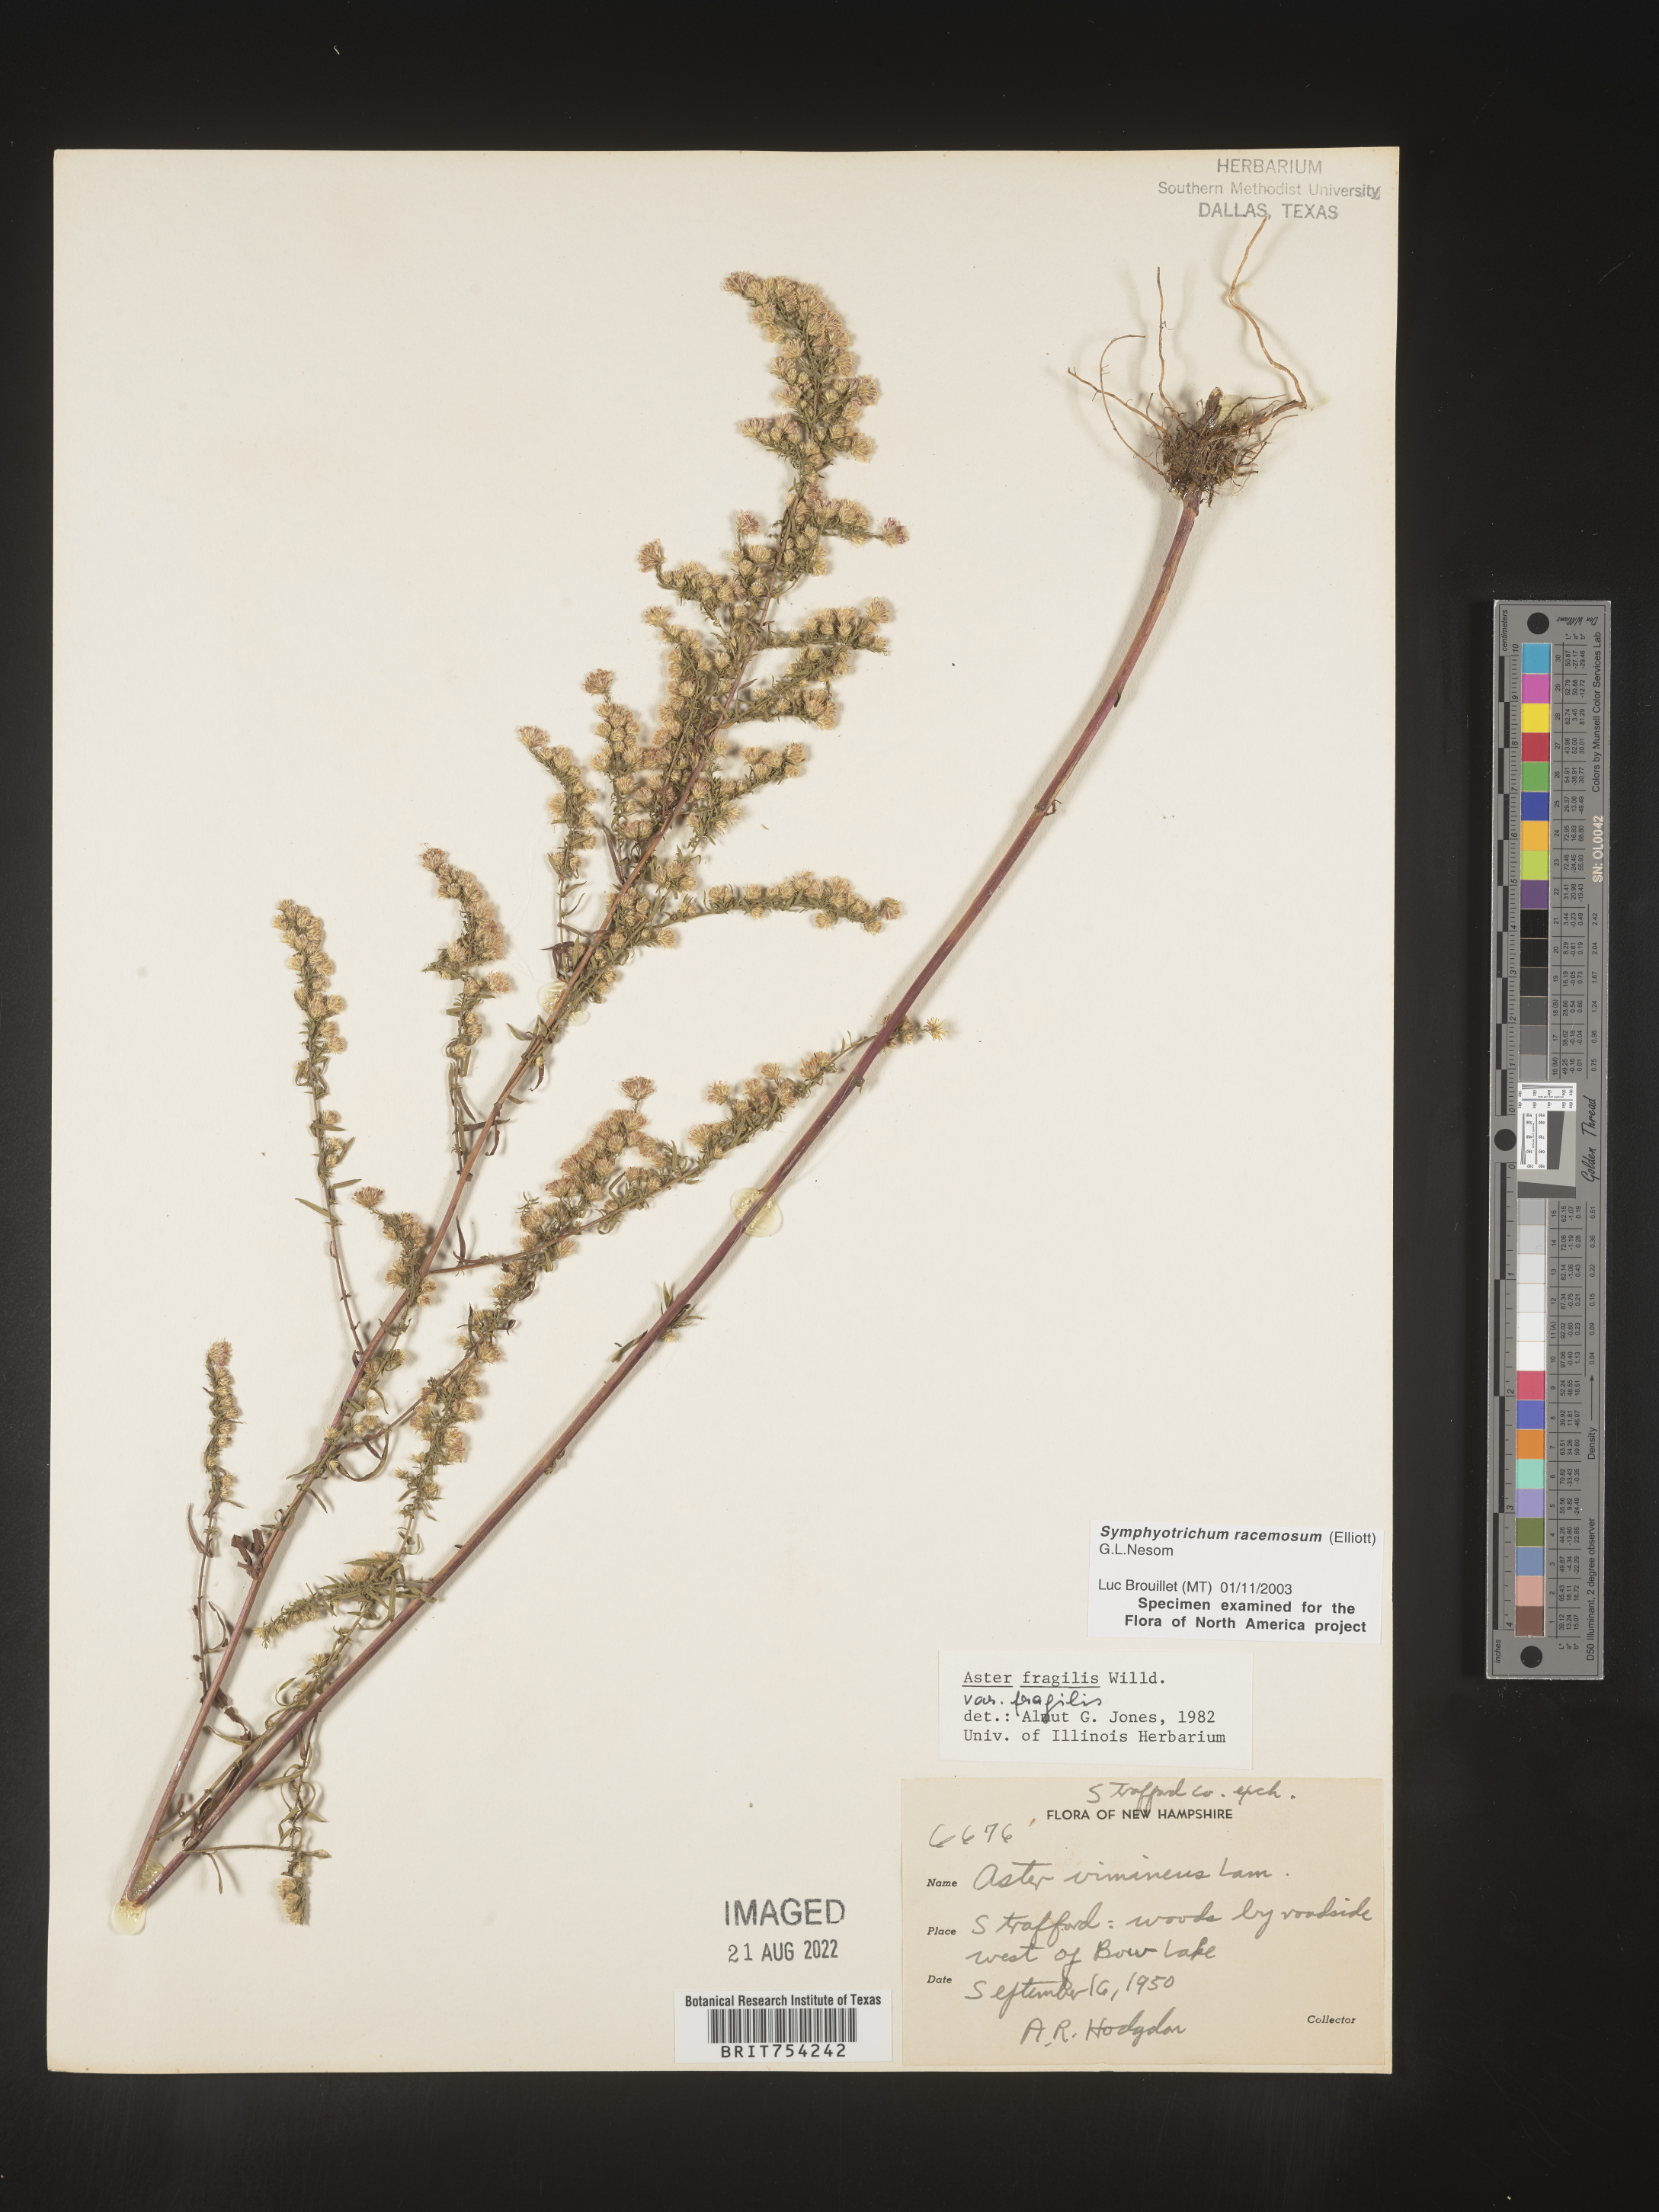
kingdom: Plantae
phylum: Tracheophyta
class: Magnoliopsida
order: Asterales
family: Asteraceae
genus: Symphyotrichum
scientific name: Symphyotrichum racemosum
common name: Small white aster
